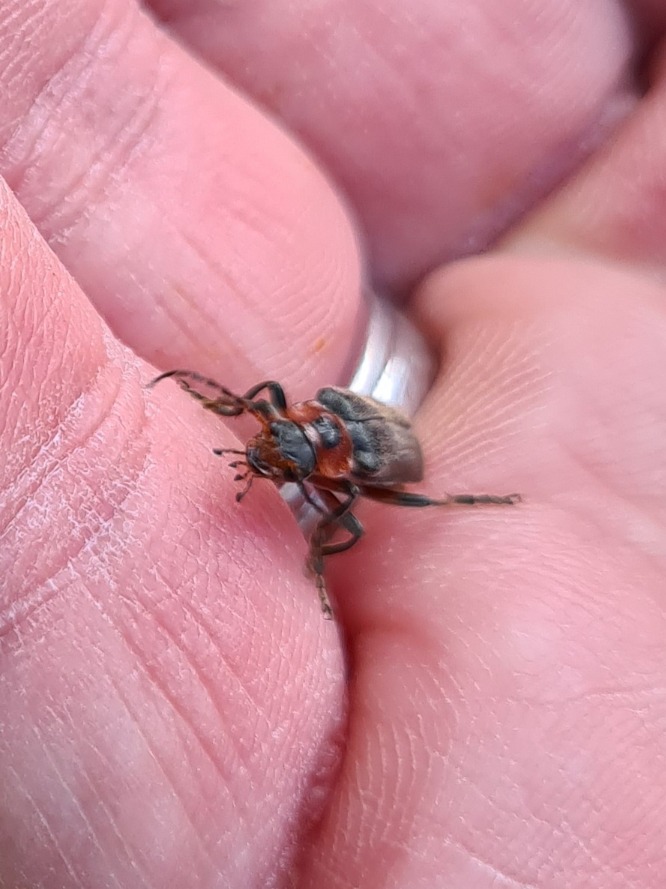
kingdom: Animalia
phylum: Arthropoda
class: Insecta
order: Coleoptera
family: Cantharidae
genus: Cantharis
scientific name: Cantharis rustica
